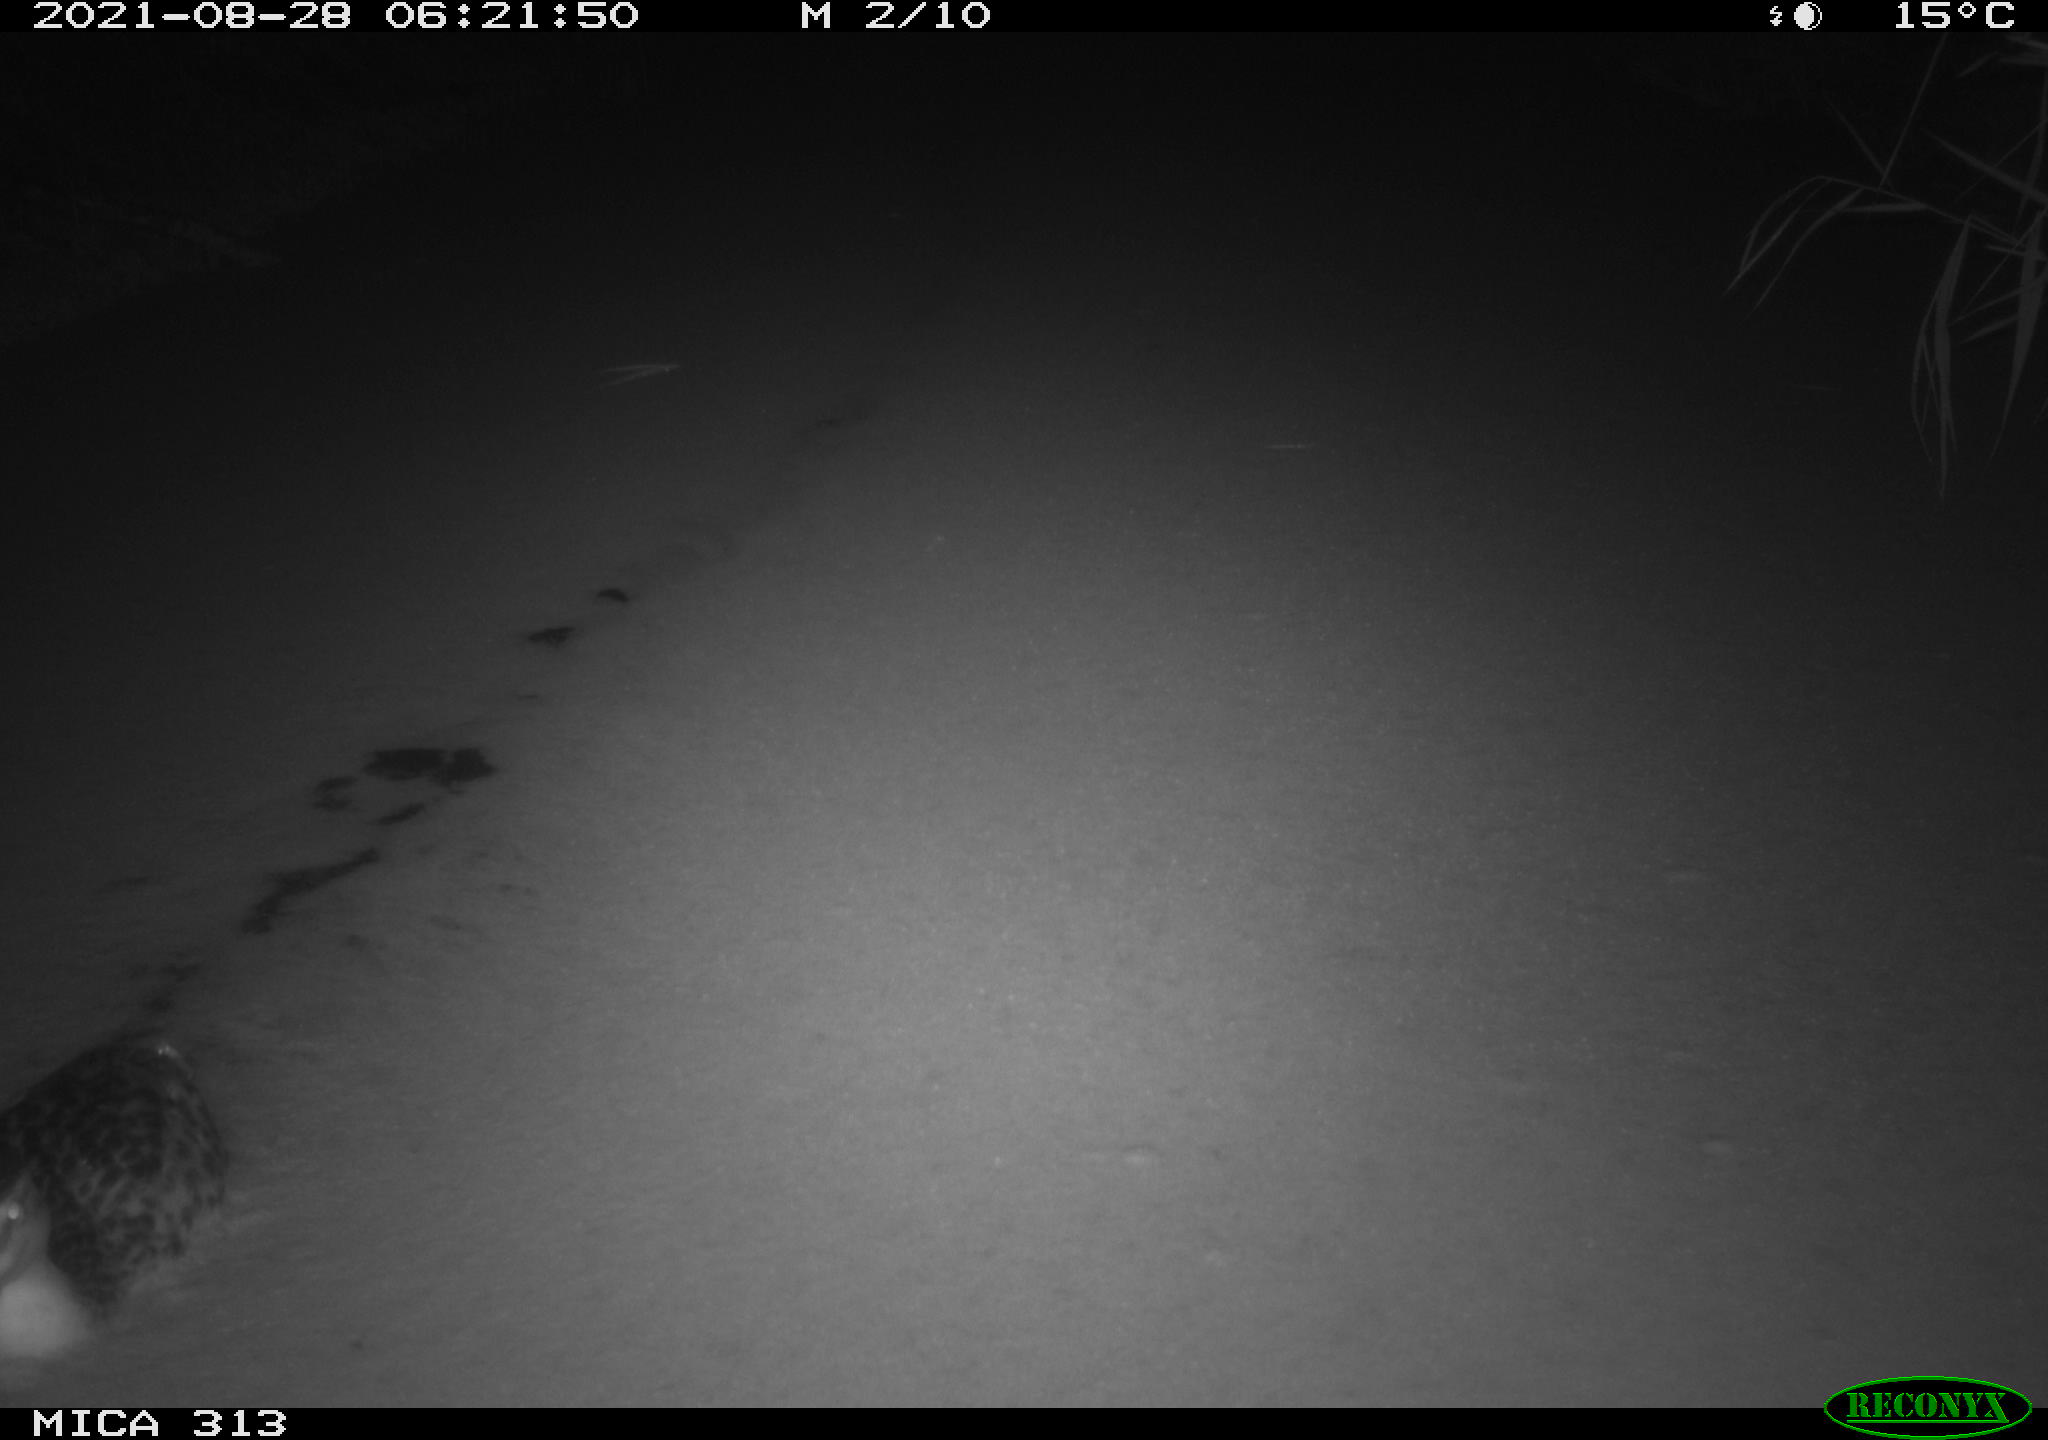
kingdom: Animalia
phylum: Chordata
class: Aves
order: Anseriformes
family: Anatidae
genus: Anas
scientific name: Anas platyrhynchos
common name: Mallard
